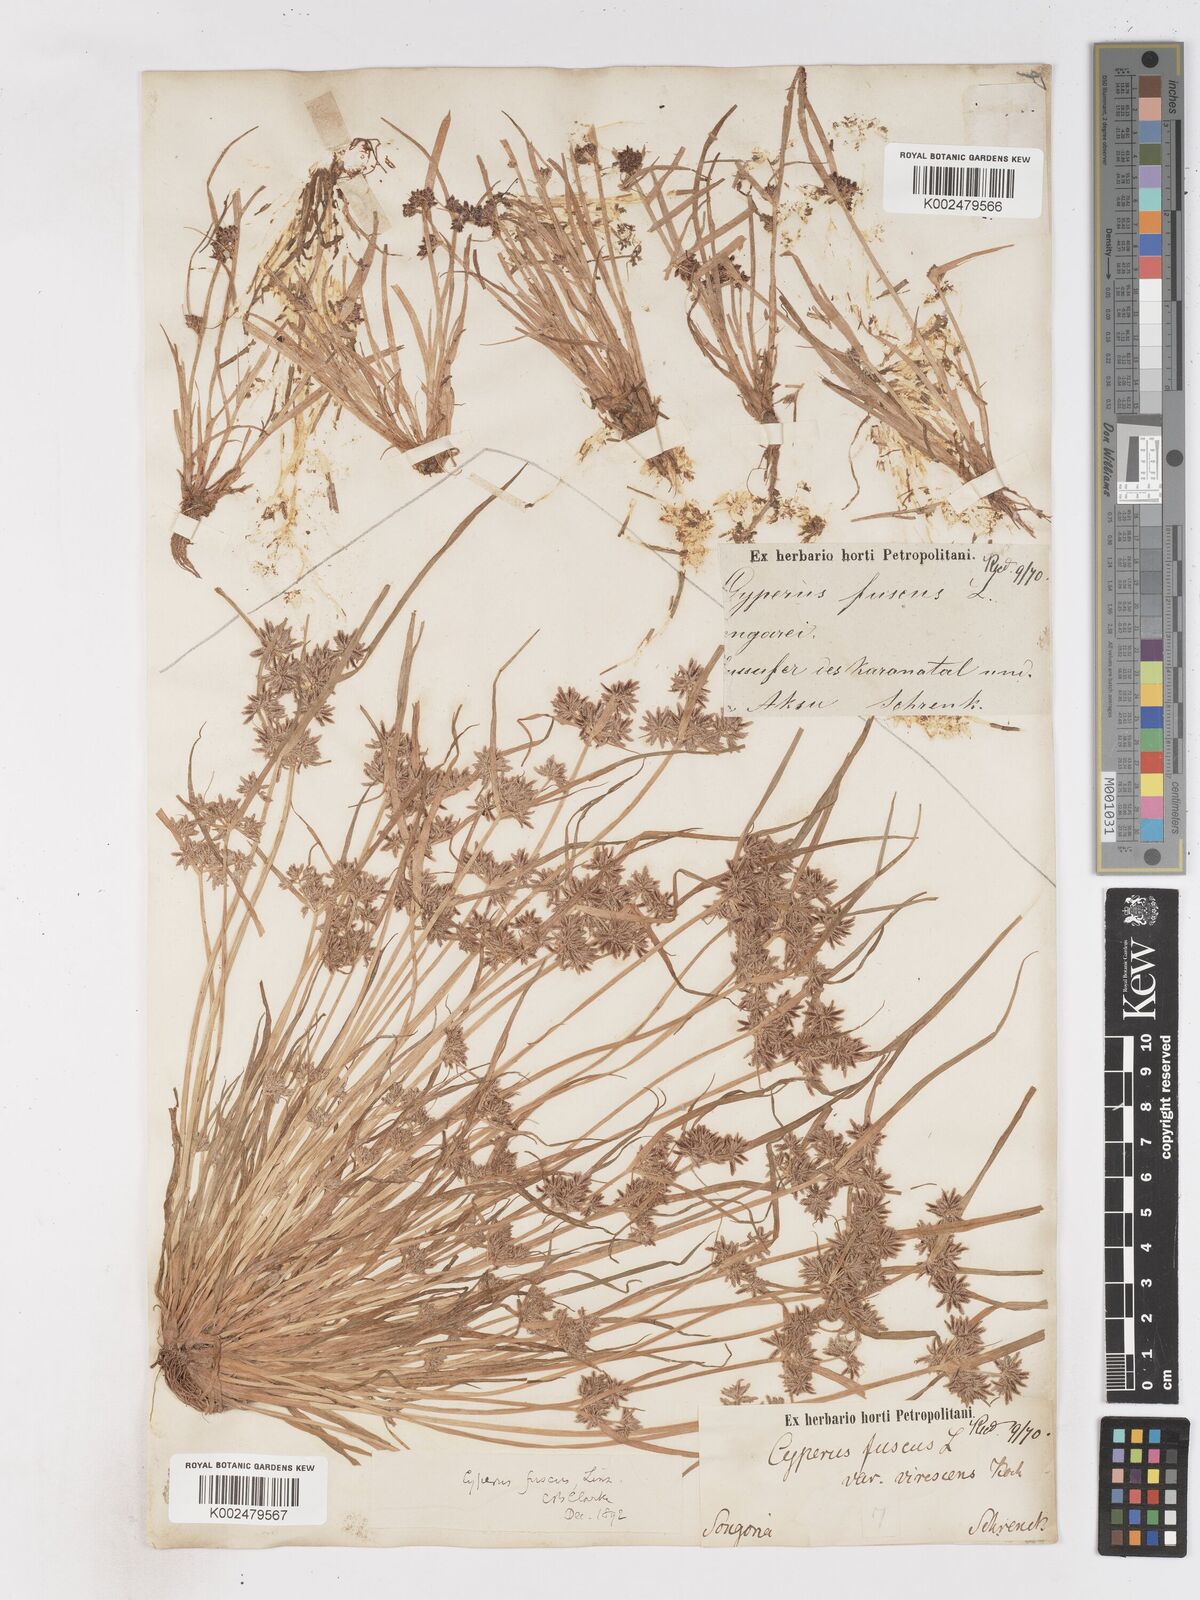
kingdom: Plantae
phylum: Tracheophyta
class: Liliopsida
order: Poales
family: Cyperaceae
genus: Cyperus
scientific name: Cyperus fuscus
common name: Brown galingale
